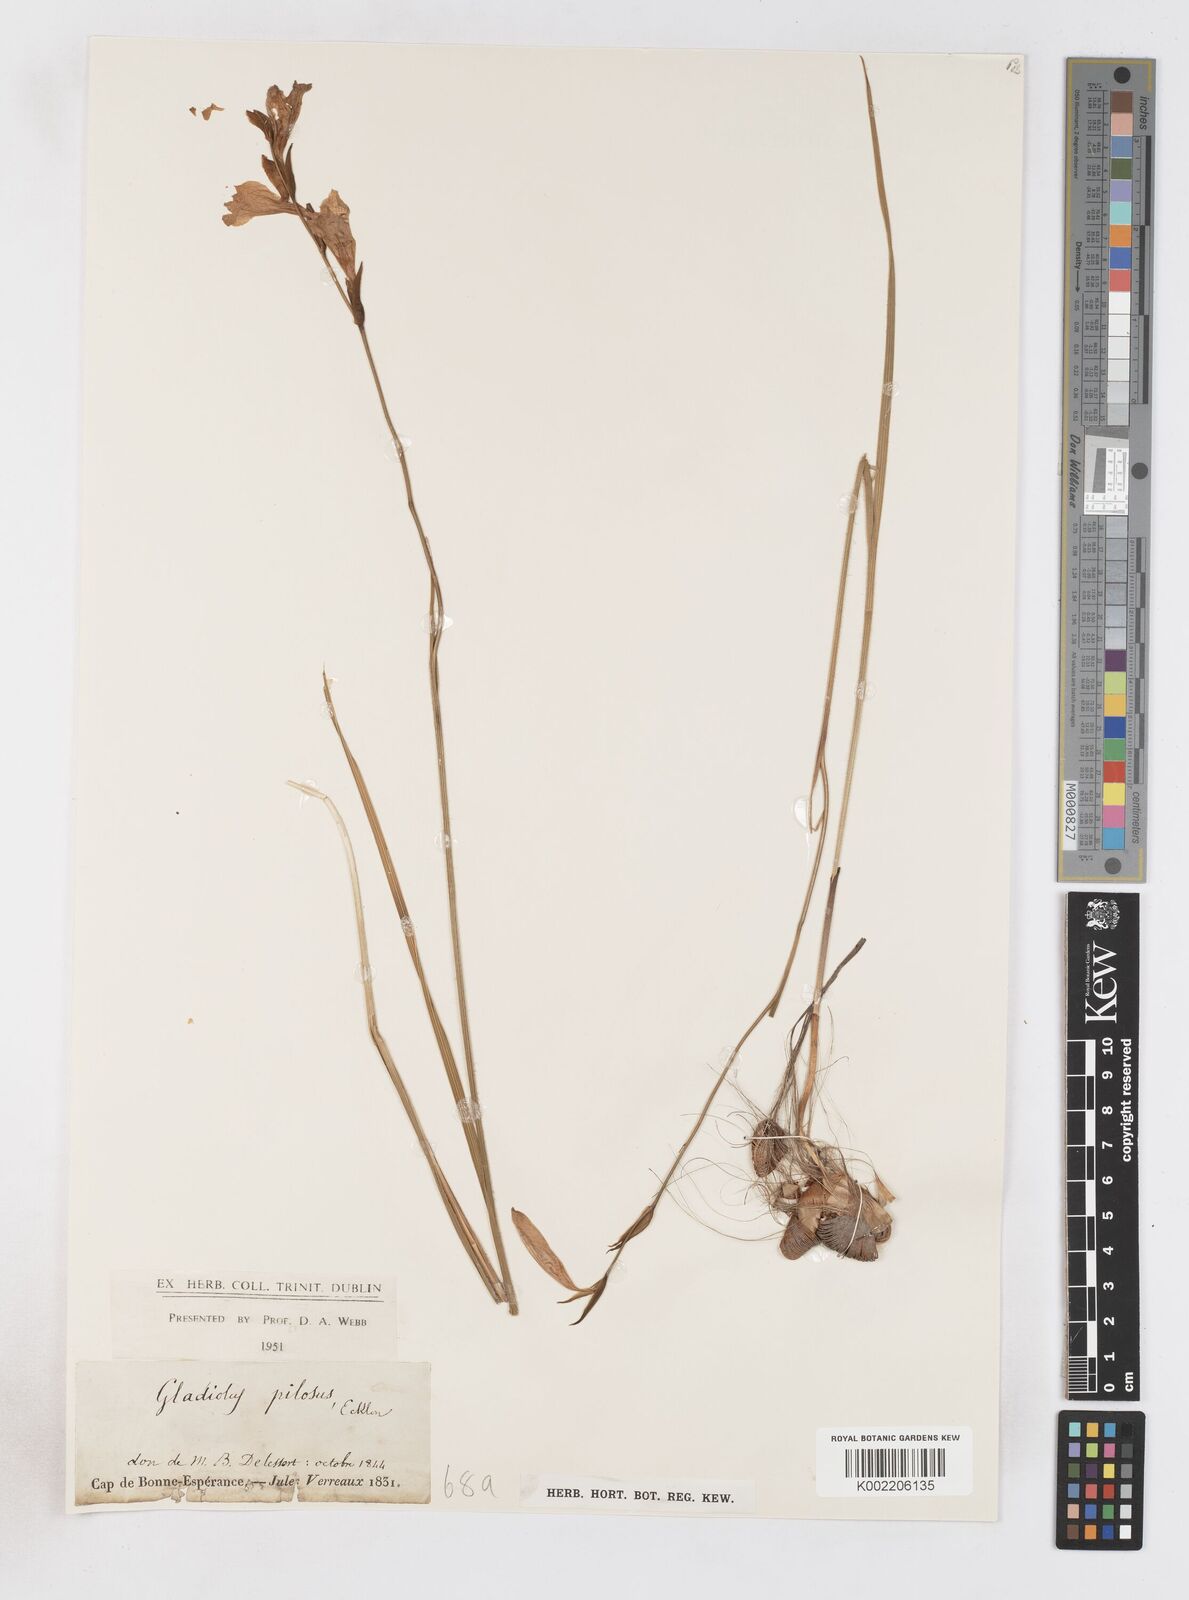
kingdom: Plantae
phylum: Tracheophyta
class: Liliopsida
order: Asparagales
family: Iridaceae
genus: Gladiolus
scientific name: Gladiolus hirsutus
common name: Small pink afrikaner
